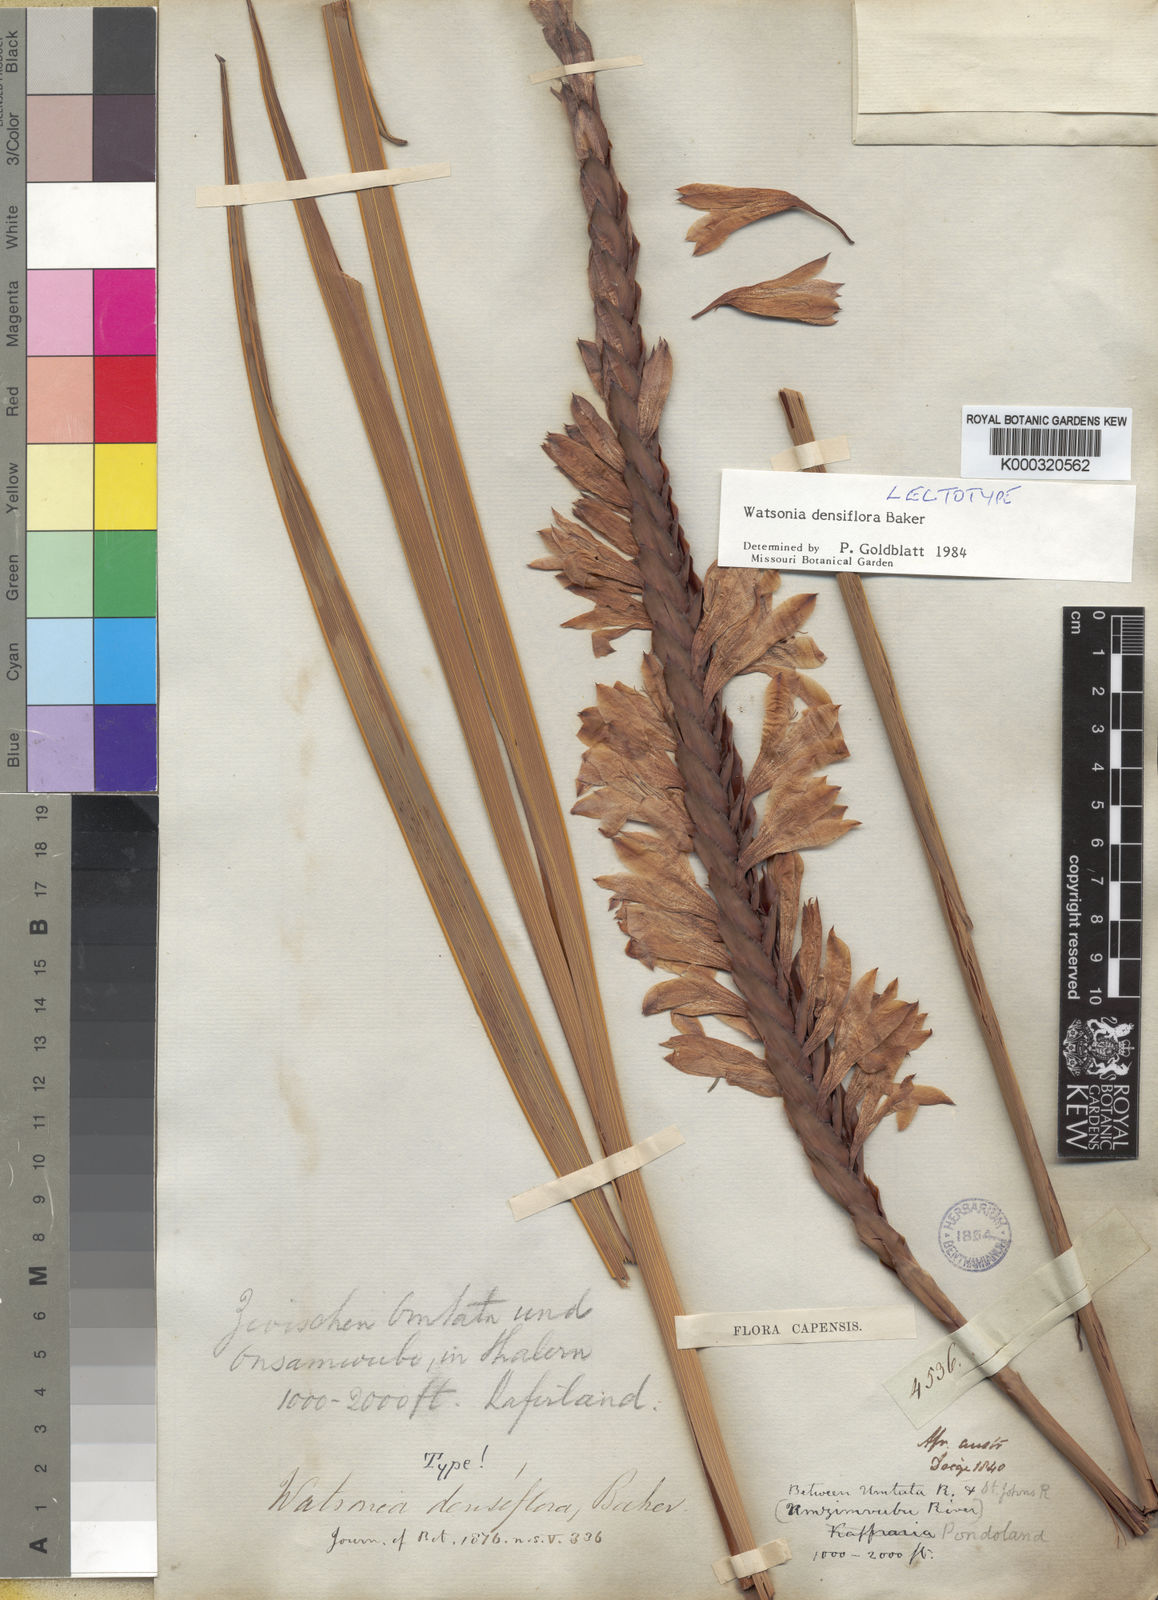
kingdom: Plantae
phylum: Tracheophyta
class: Liliopsida
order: Asparagales
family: Iridaceae
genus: Watsonia
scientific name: Watsonia densiflora
